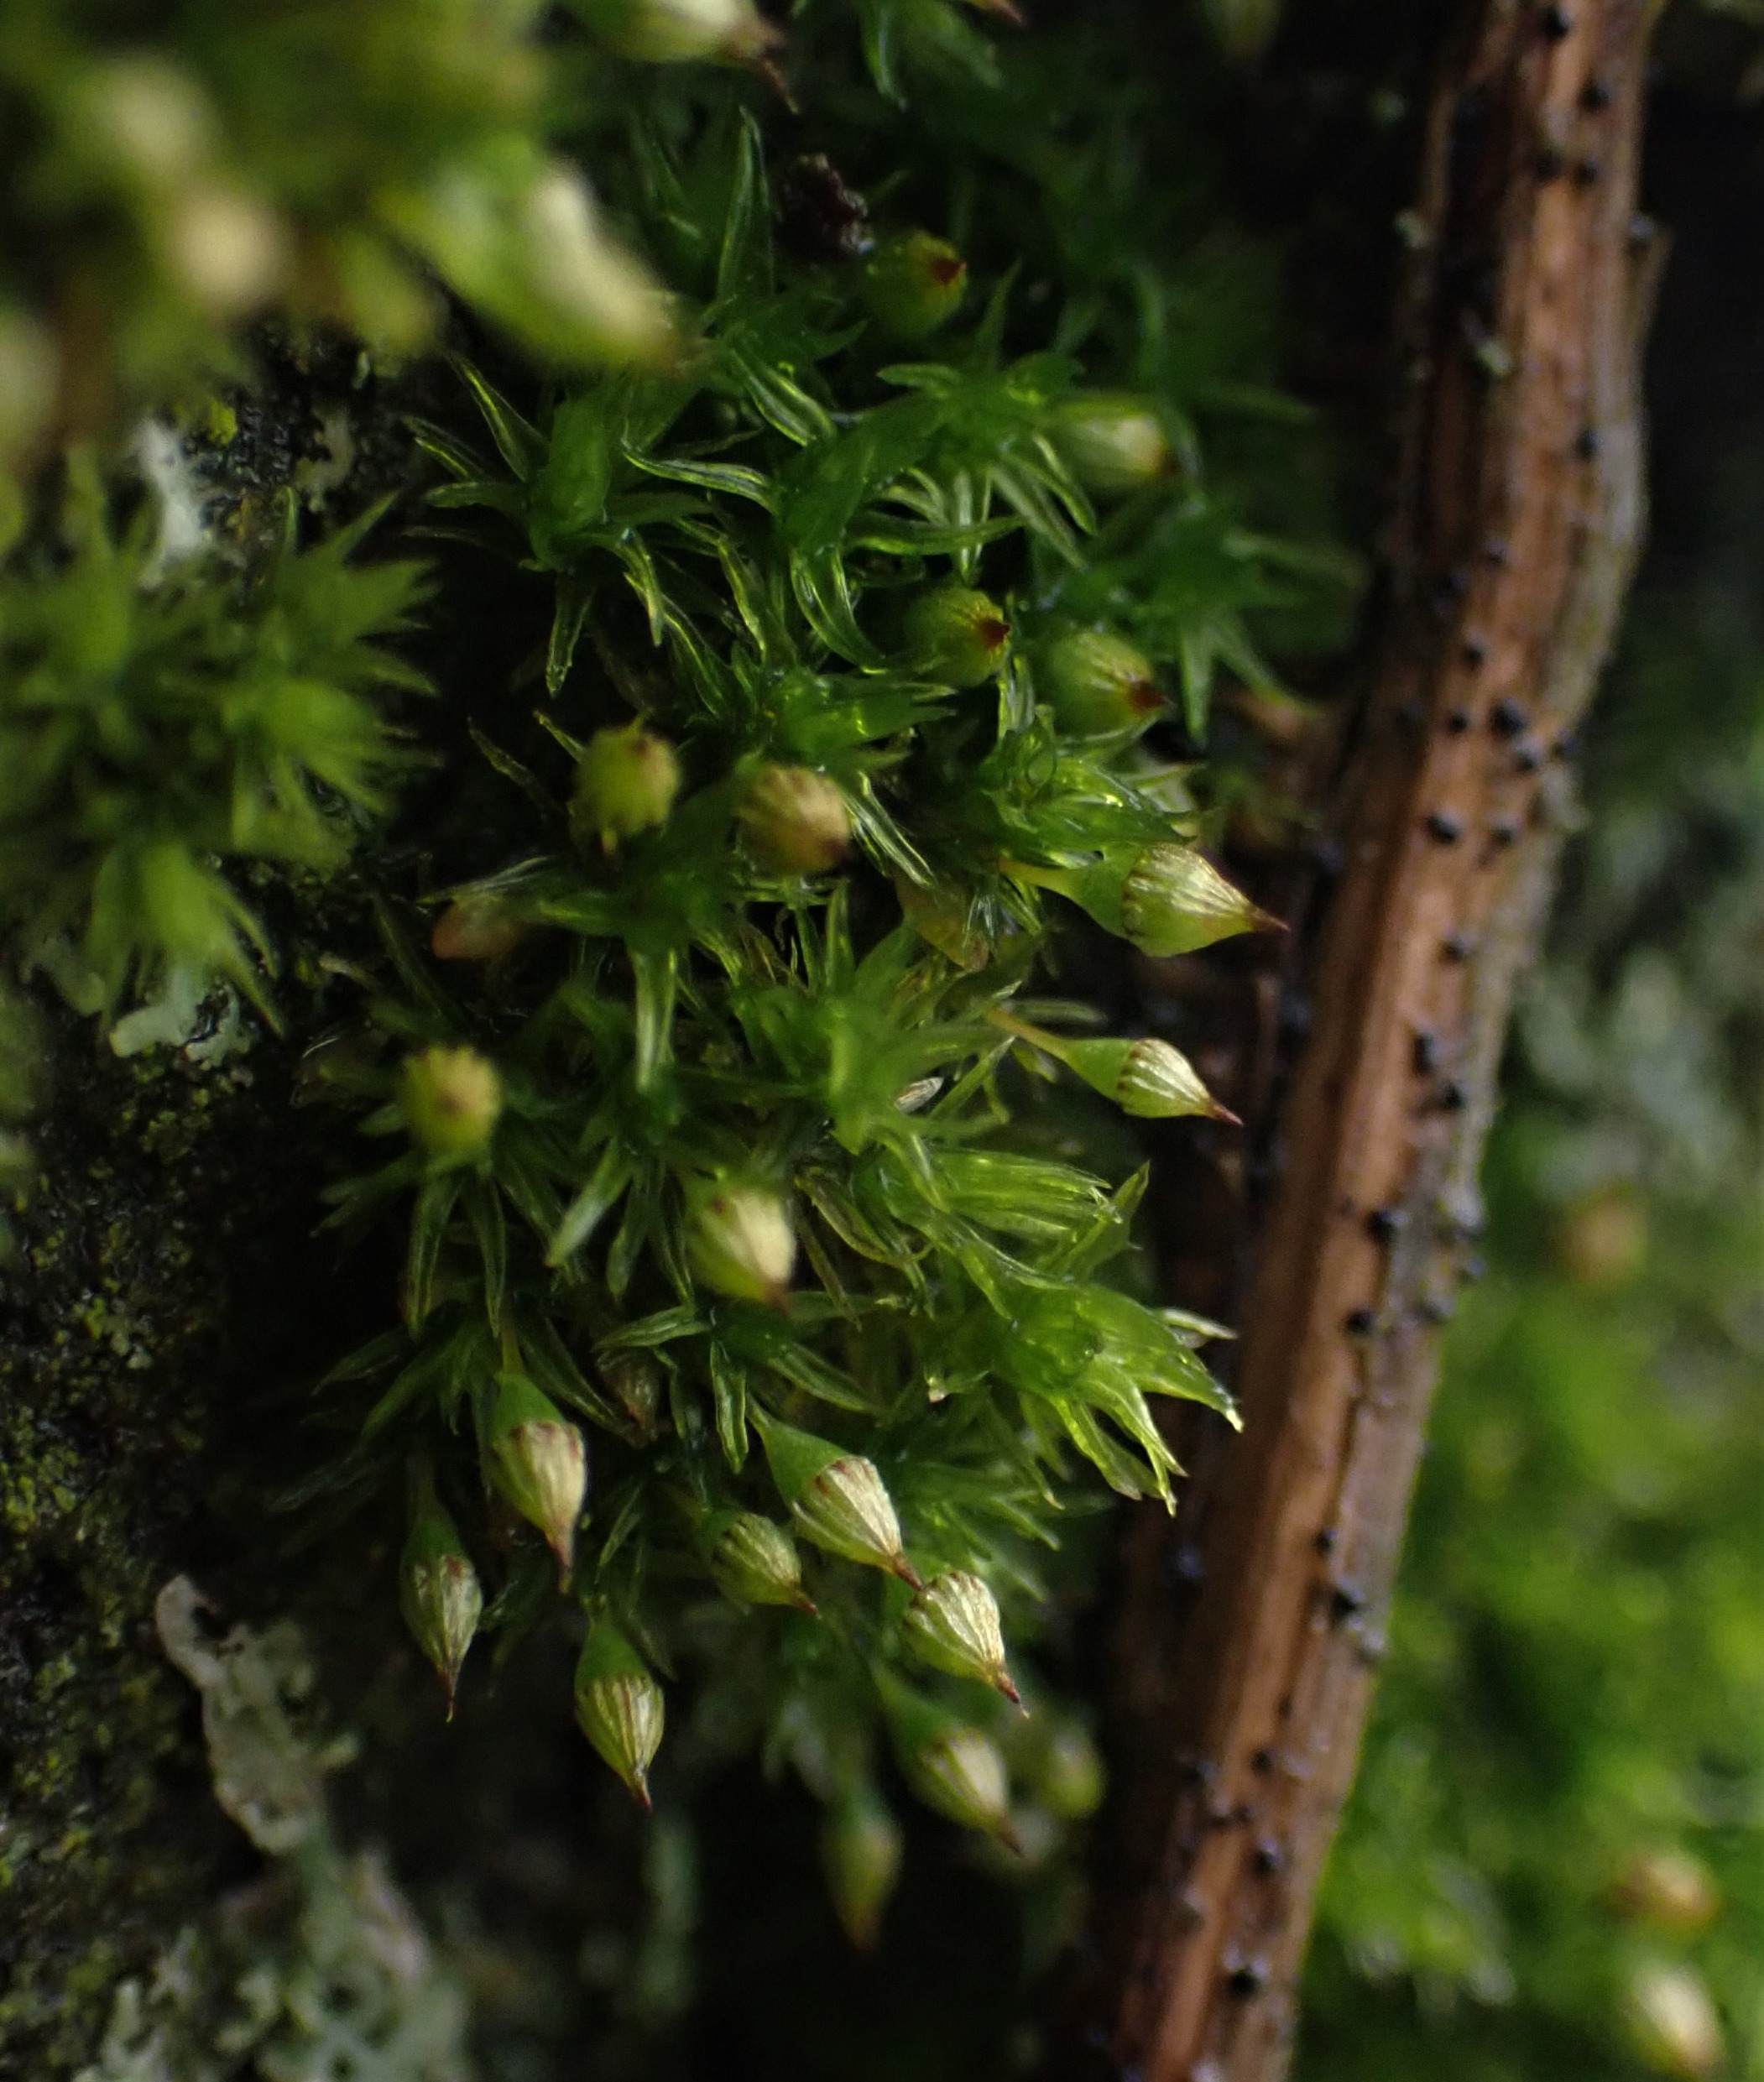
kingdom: Plantae
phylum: Bryophyta
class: Bryopsida
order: Orthotrichales
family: Orthotrichaceae
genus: Orthotrichum
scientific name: Orthotrichum pulchellum
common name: Smuk furehætte
